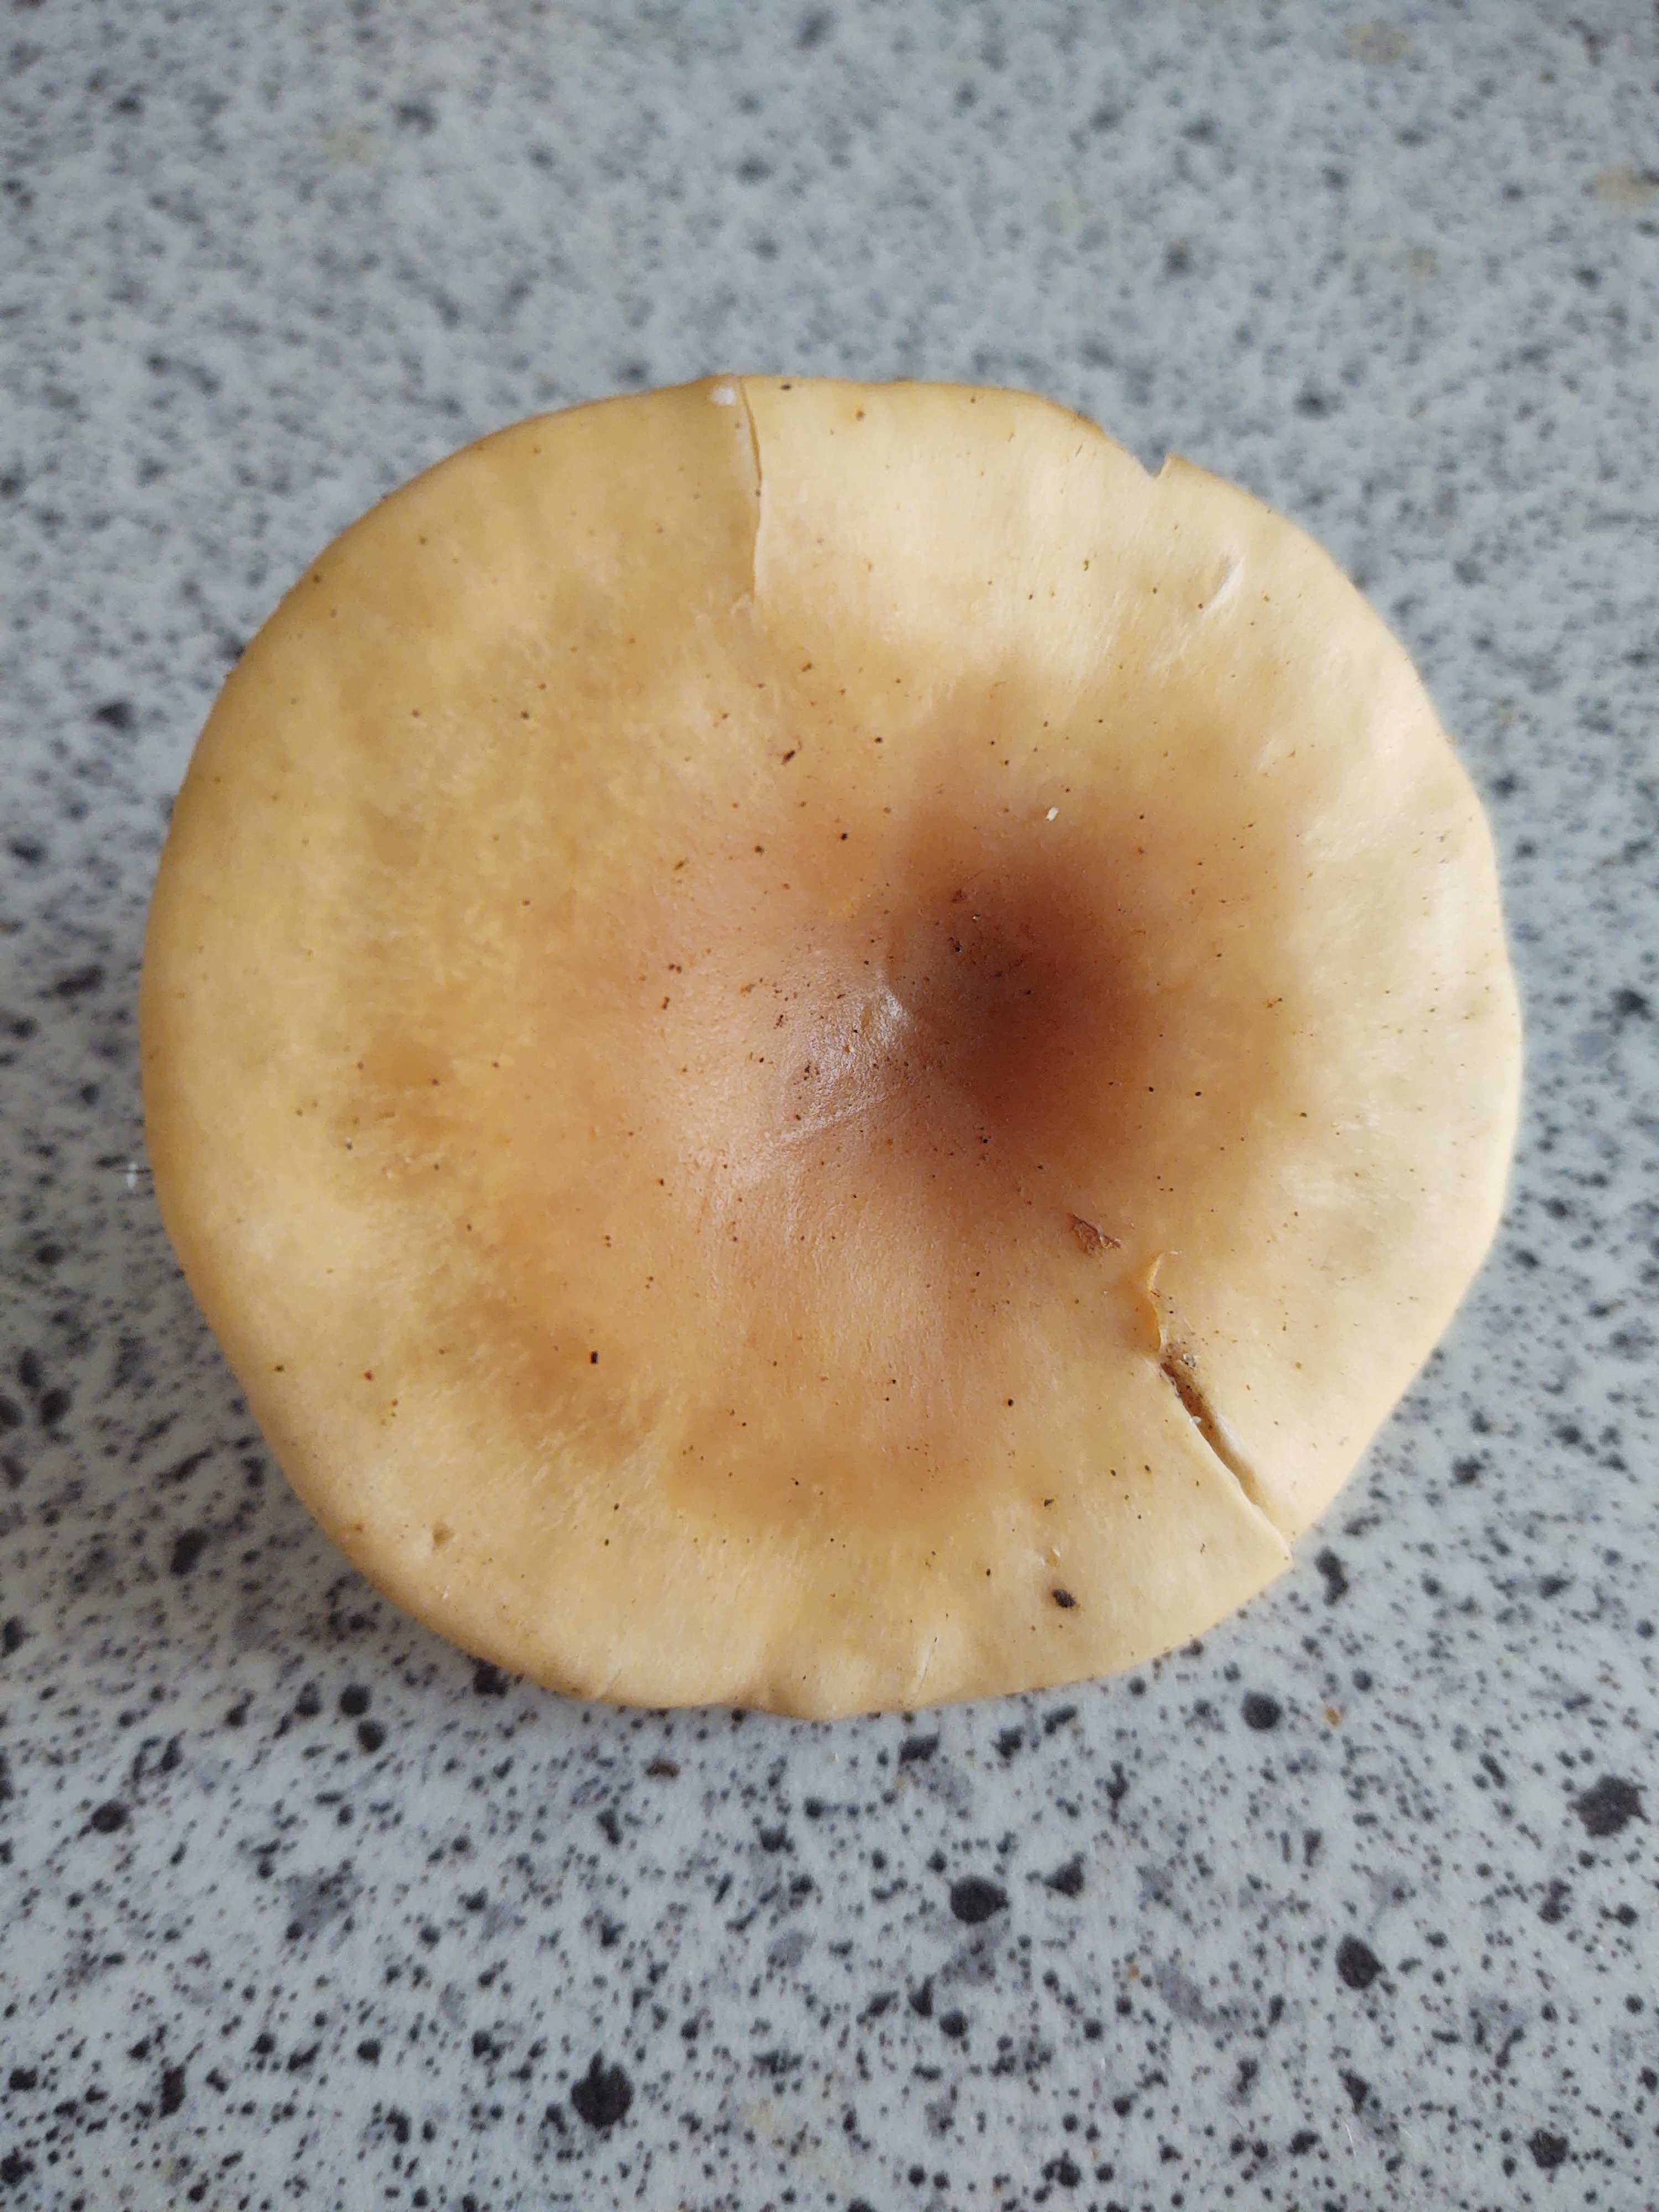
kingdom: Fungi
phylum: Basidiomycota
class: Agaricomycetes
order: Agaricales
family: Tricholomataceae
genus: Paralepista
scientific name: Paralepista flaccida
